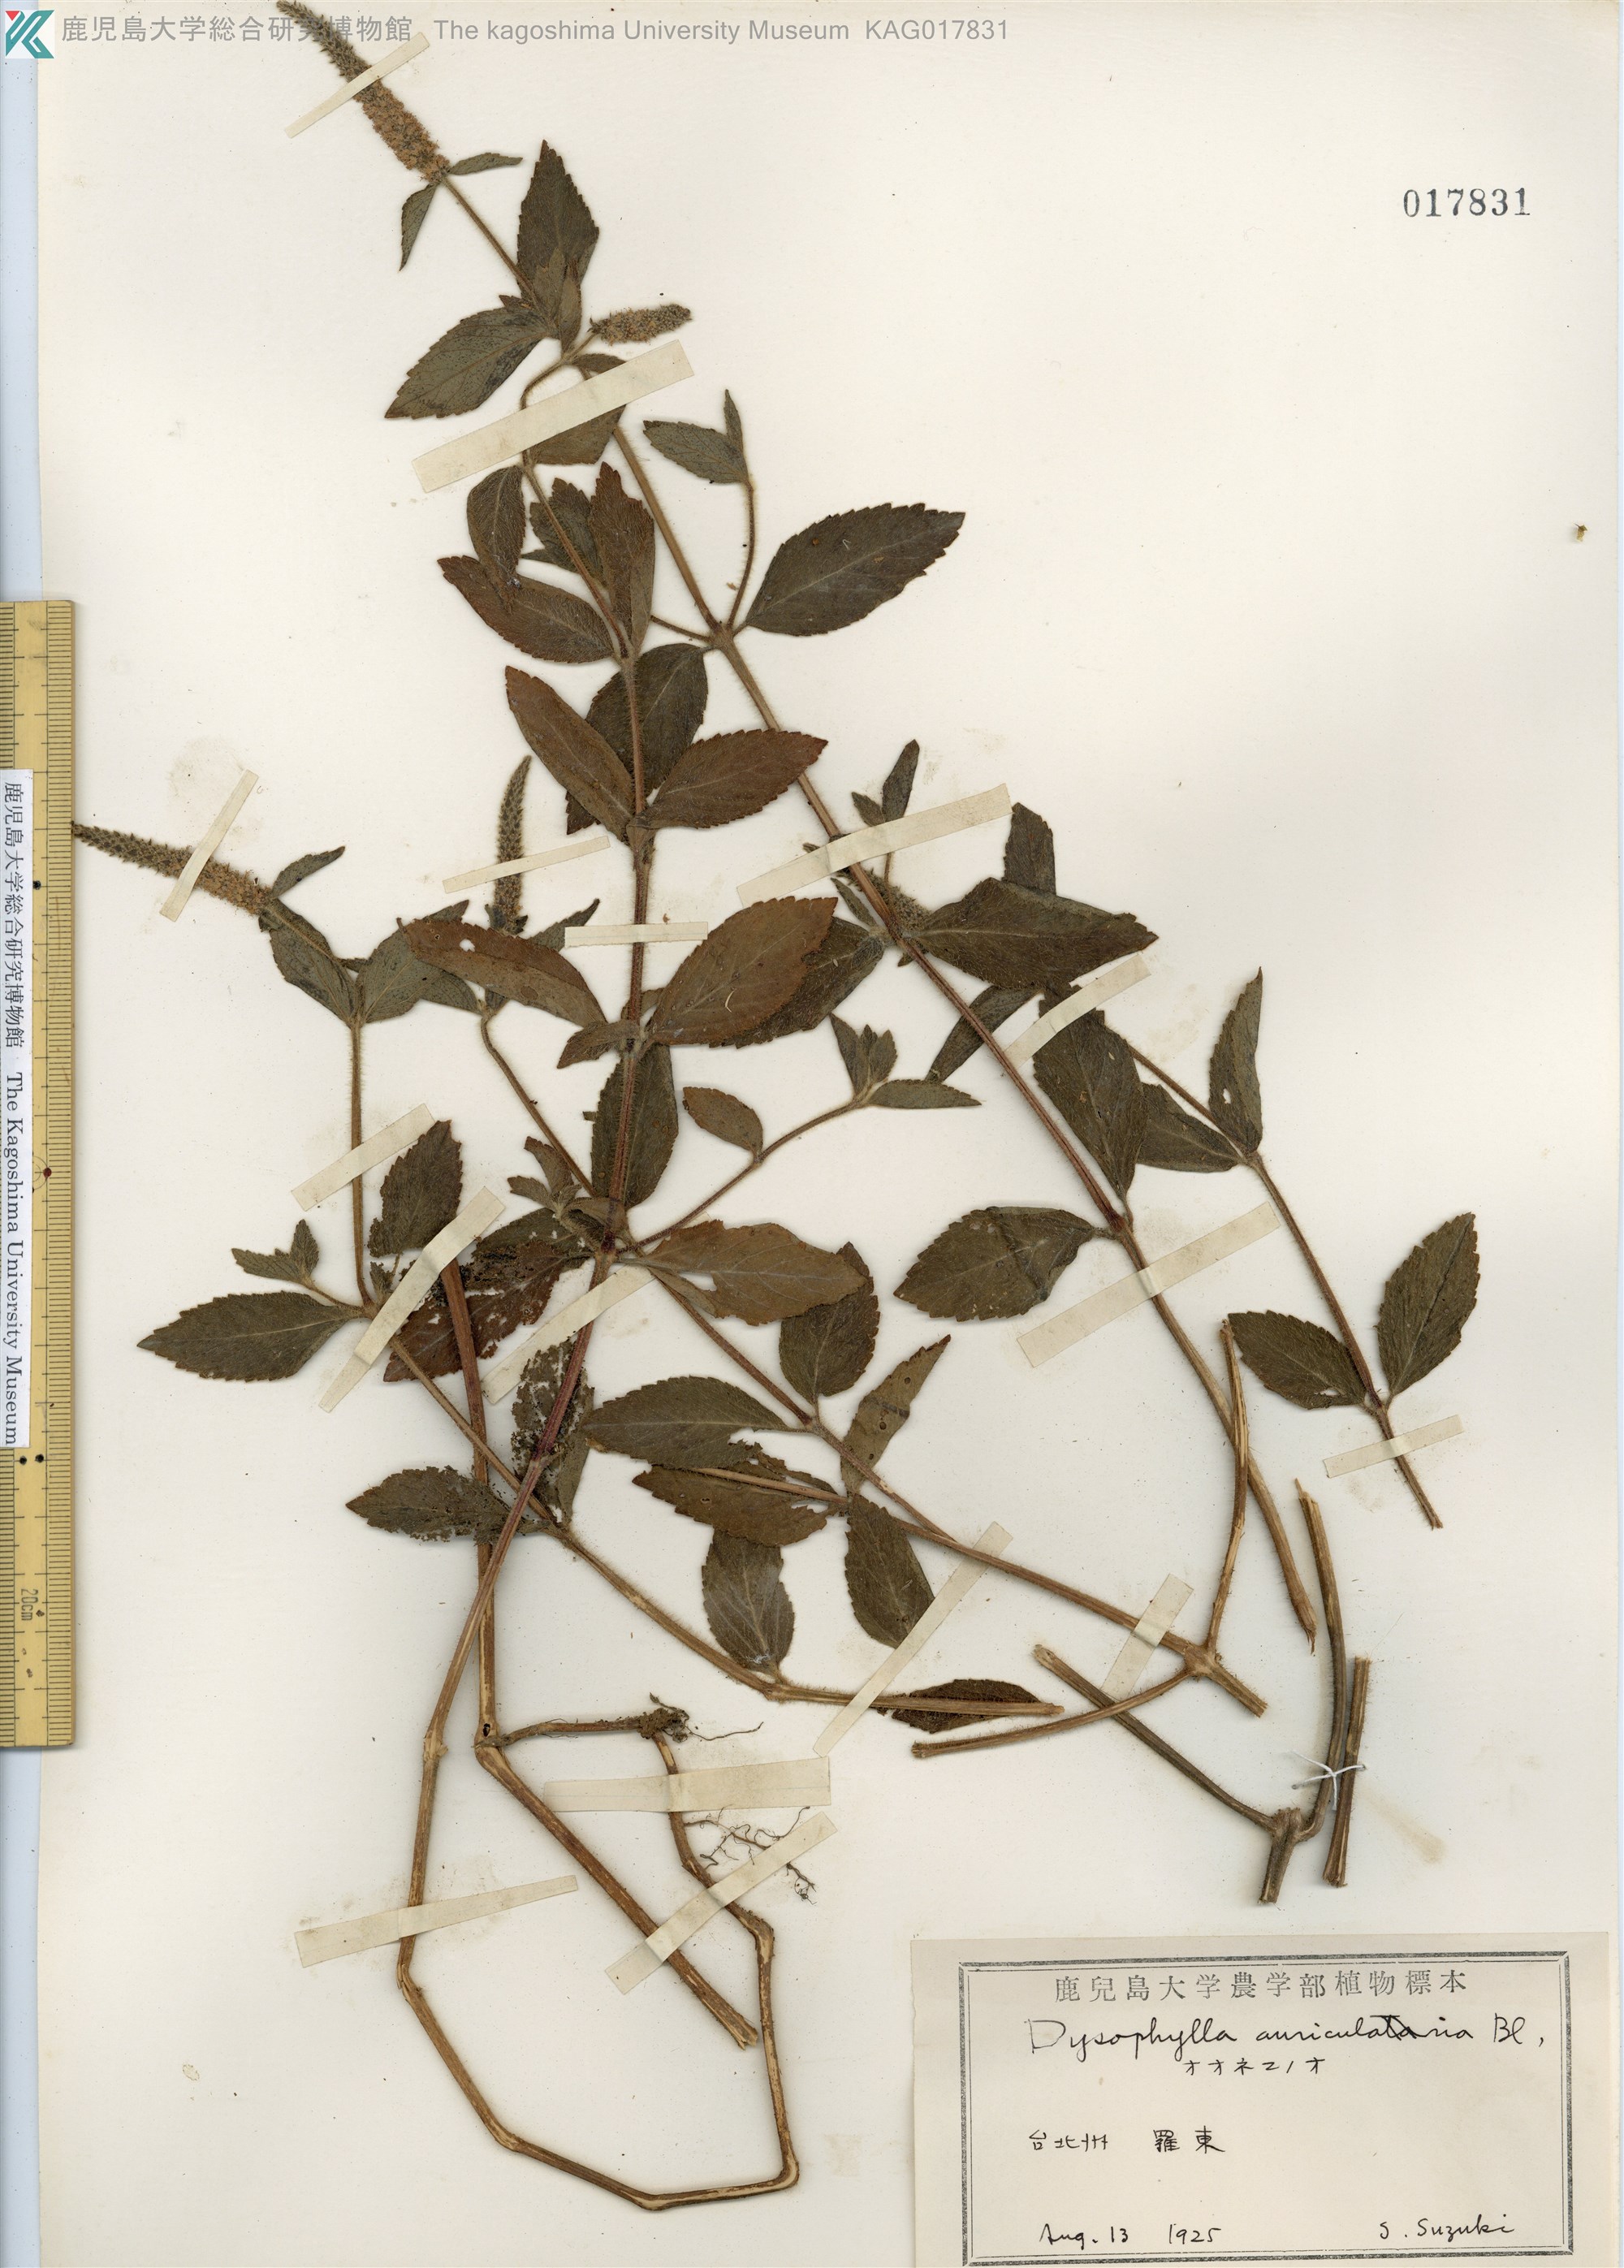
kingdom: Plantae
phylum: Tracheophyta
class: Magnoliopsida
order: Lamiales
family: Lamiaceae
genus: Pogostemon
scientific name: Pogostemon auricularius
